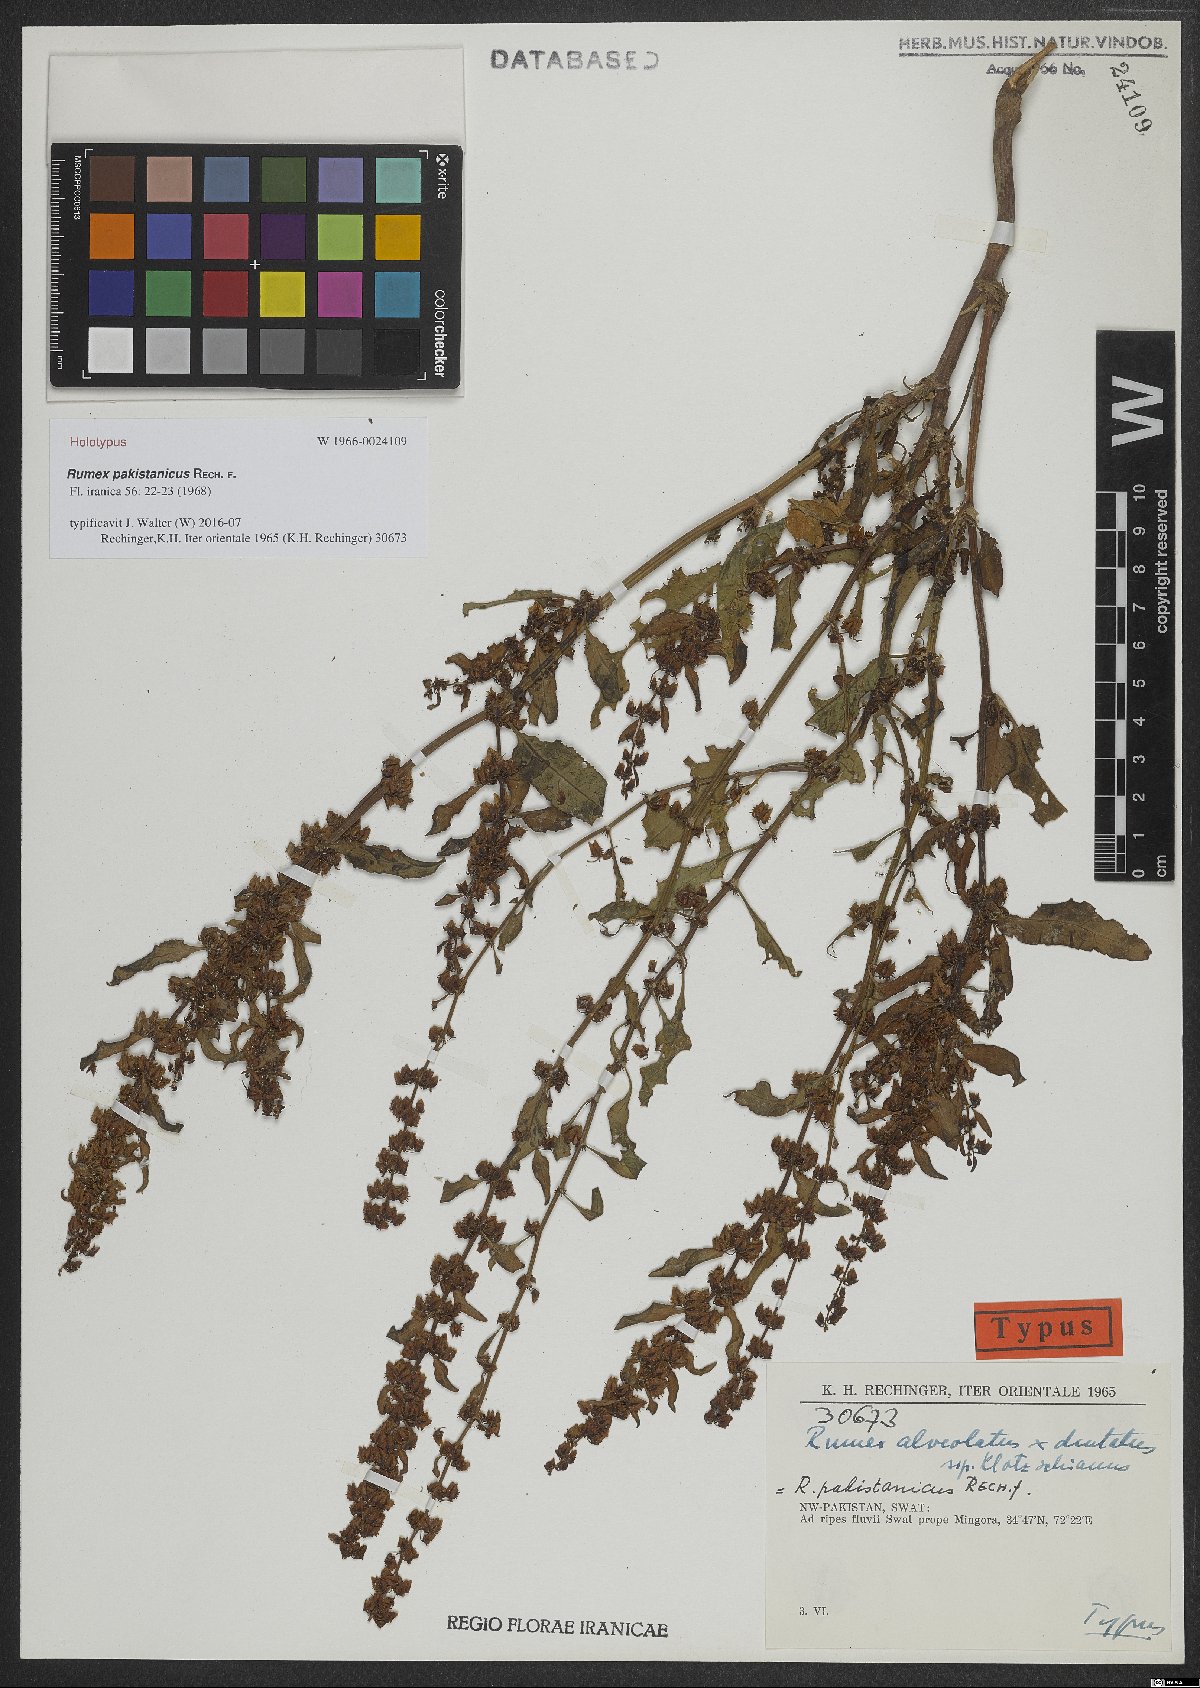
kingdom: Plantae
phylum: Tracheophyta
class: Magnoliopsida
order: Caryophyllales
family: Polygonaceae
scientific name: Polygonaceae
